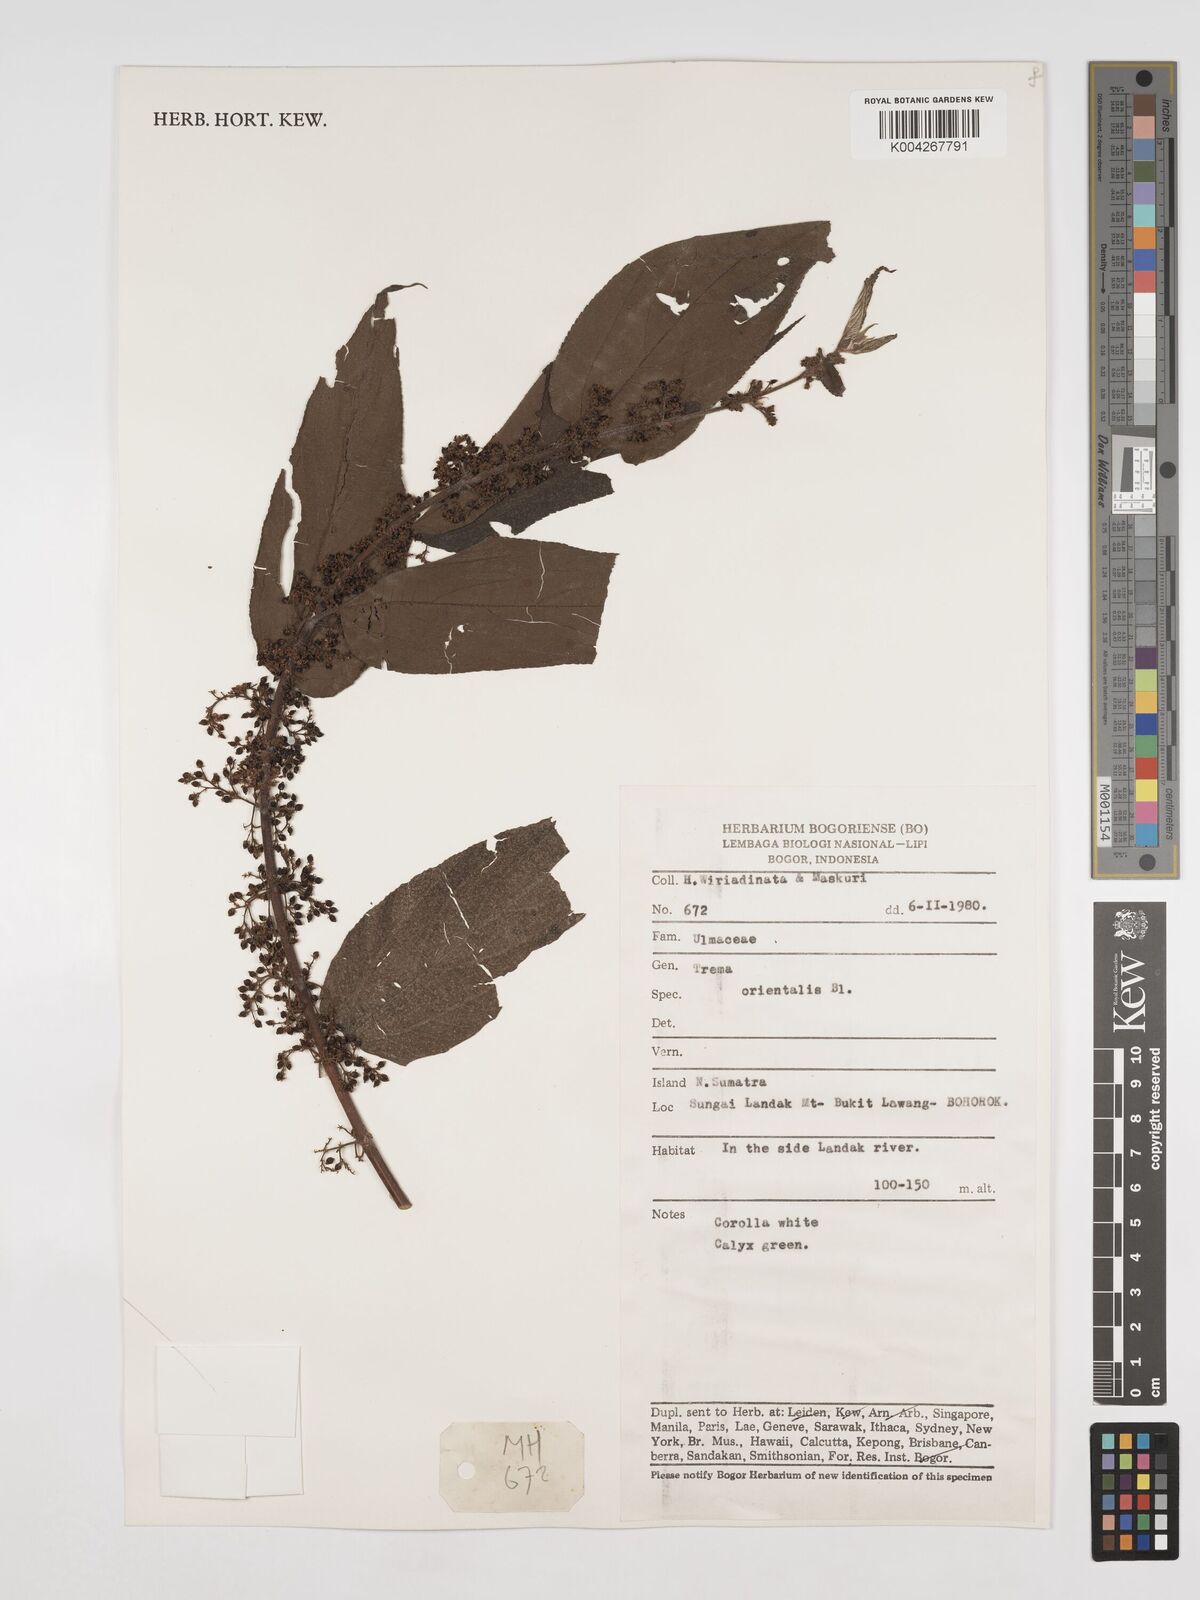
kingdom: Plantae
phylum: Tracheophyta
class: Magnoliopsida
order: Rosales
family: Cannabaceae
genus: Trema
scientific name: Trema orientale
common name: Indian charcoal tree
